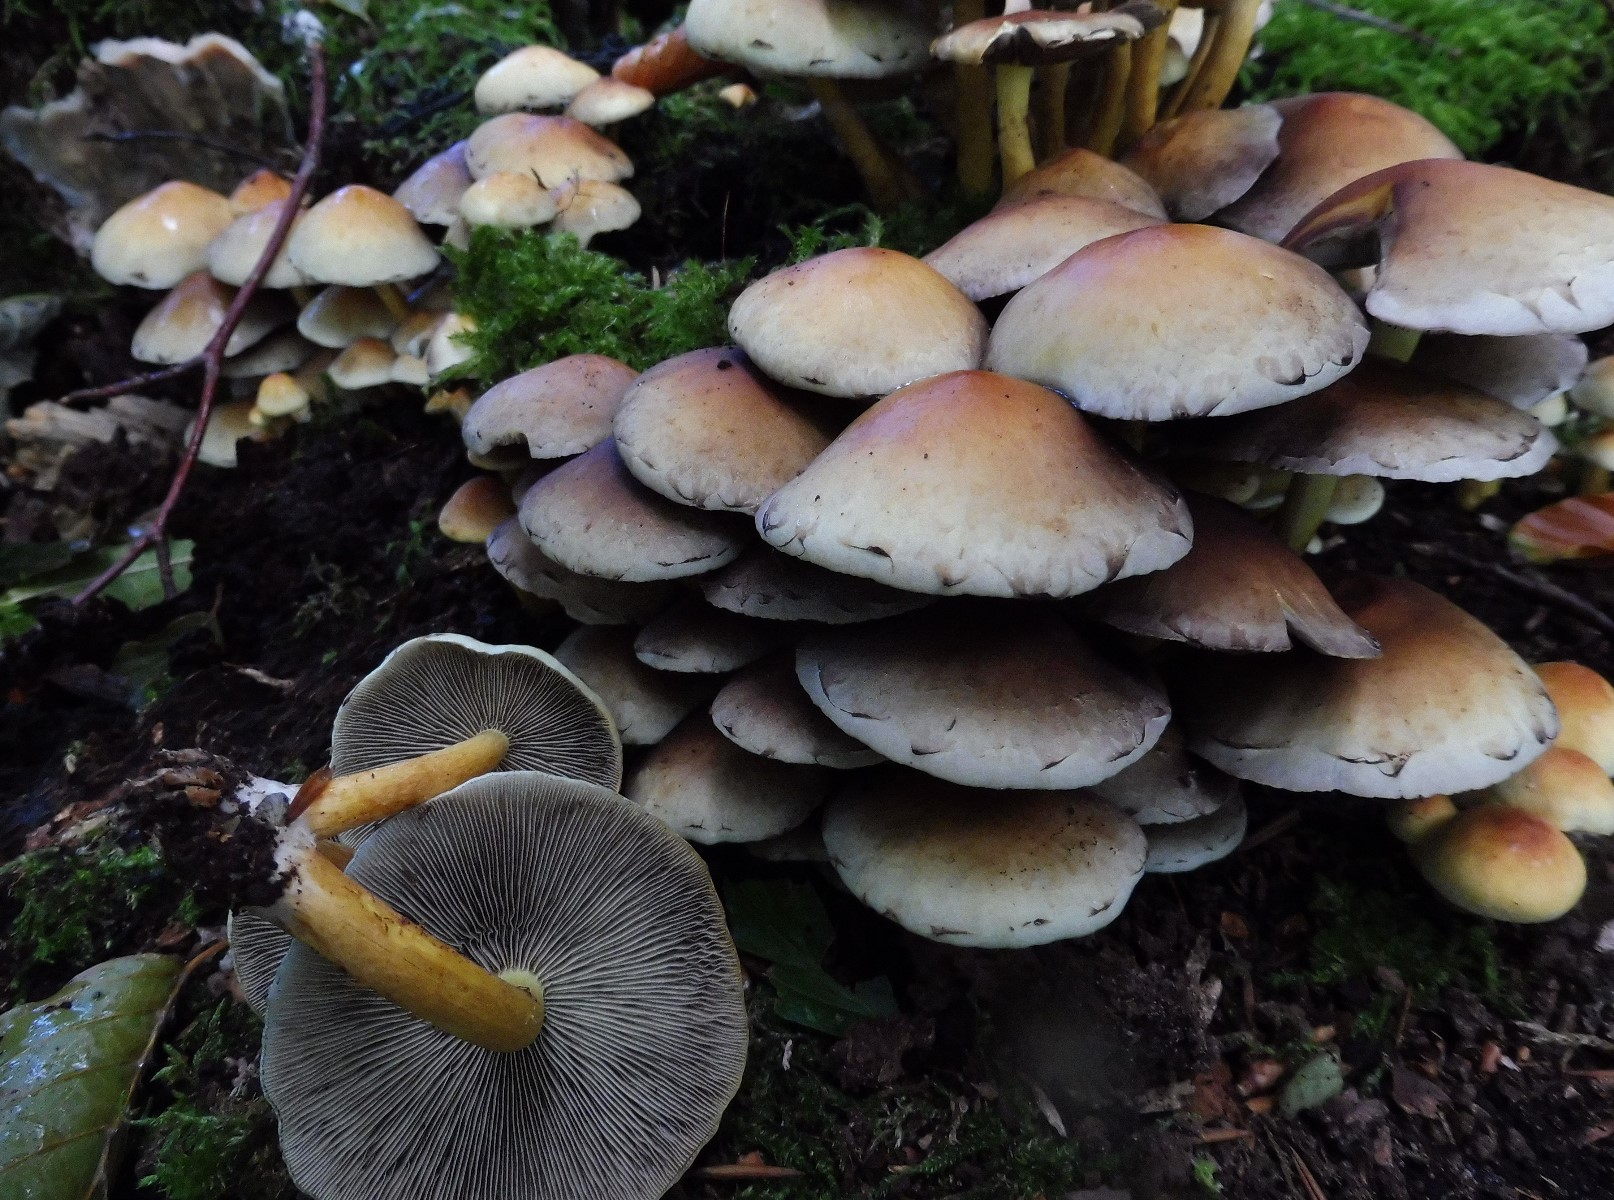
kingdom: Fungi
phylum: Basidiomycota
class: Agaricomycetes
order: Agaricales
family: Strophariaceae
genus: Hypholoma
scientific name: Hypholoma fasciculare
